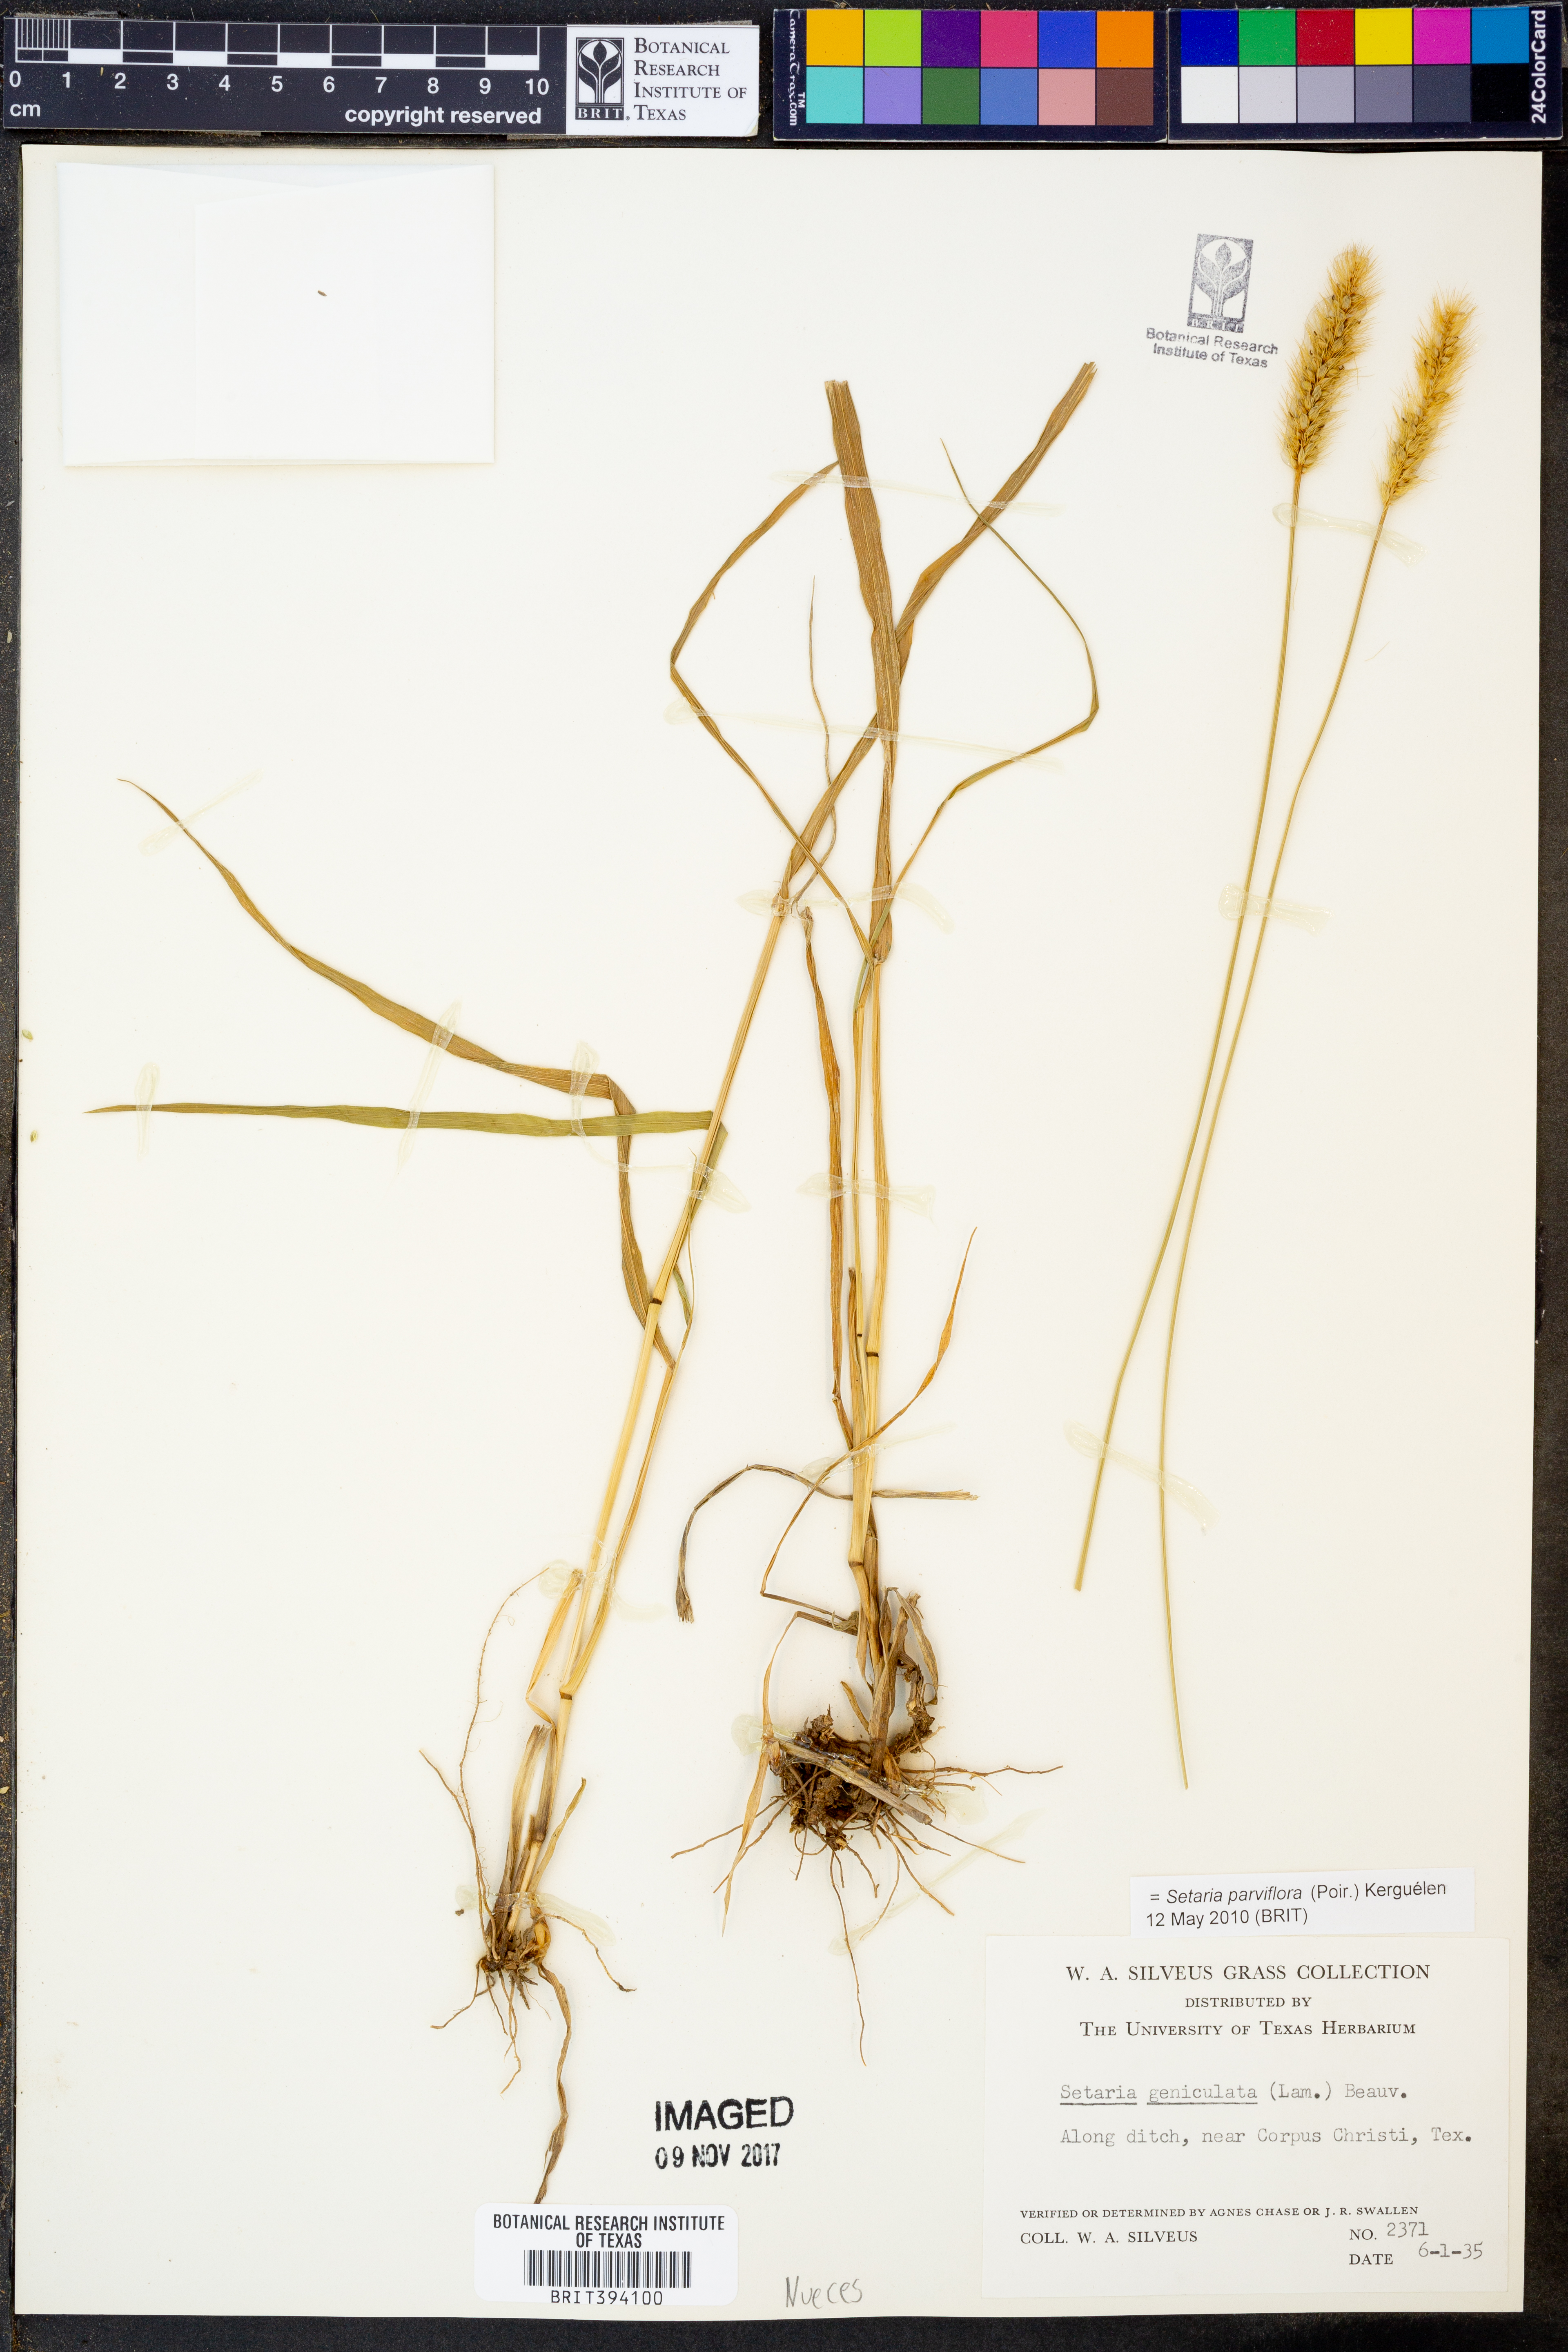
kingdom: Plantae
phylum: Tracheophyta
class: Liliopsida
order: Poales
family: Poaceae
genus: Setaria
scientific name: Setaria parviflora
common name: Knotroot bristle-grass
